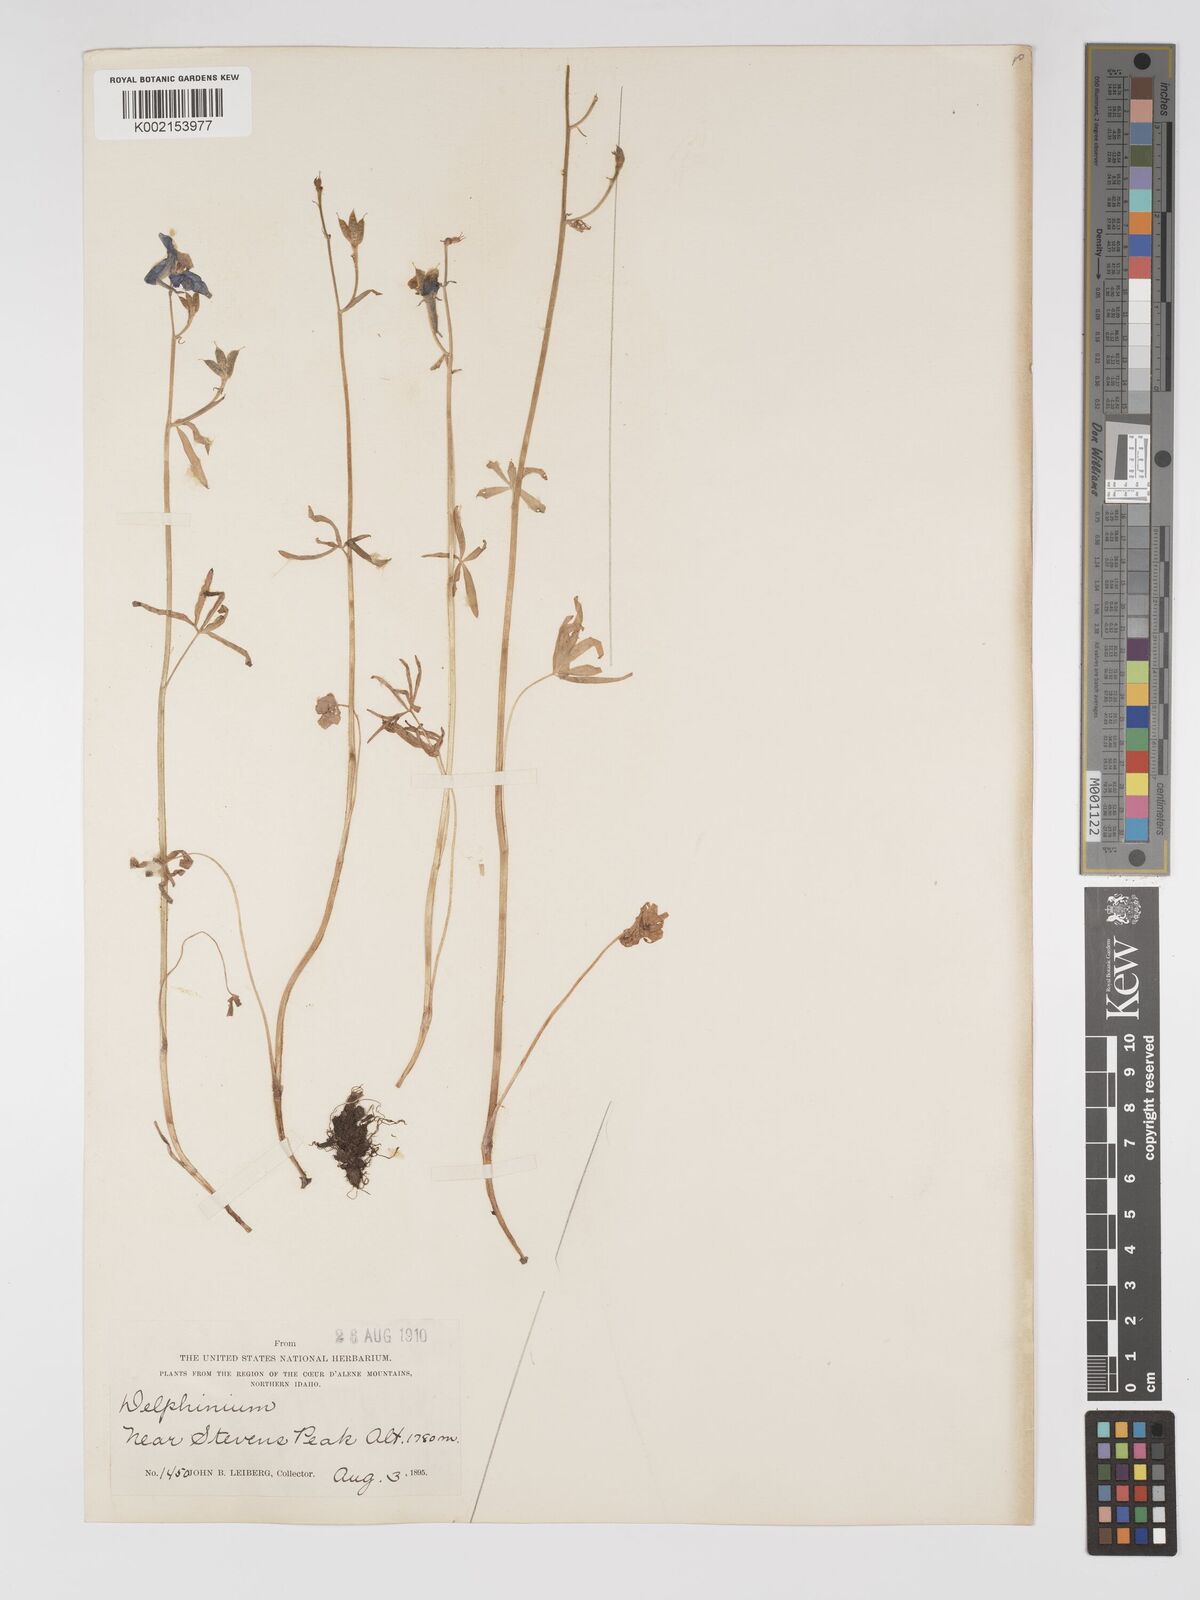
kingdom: Plantae
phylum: Tracheophyta
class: Magnoliopsida
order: Ranunculales
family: Ranunculaceae
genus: Delphinium
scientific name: Delphinium nuttallianum
